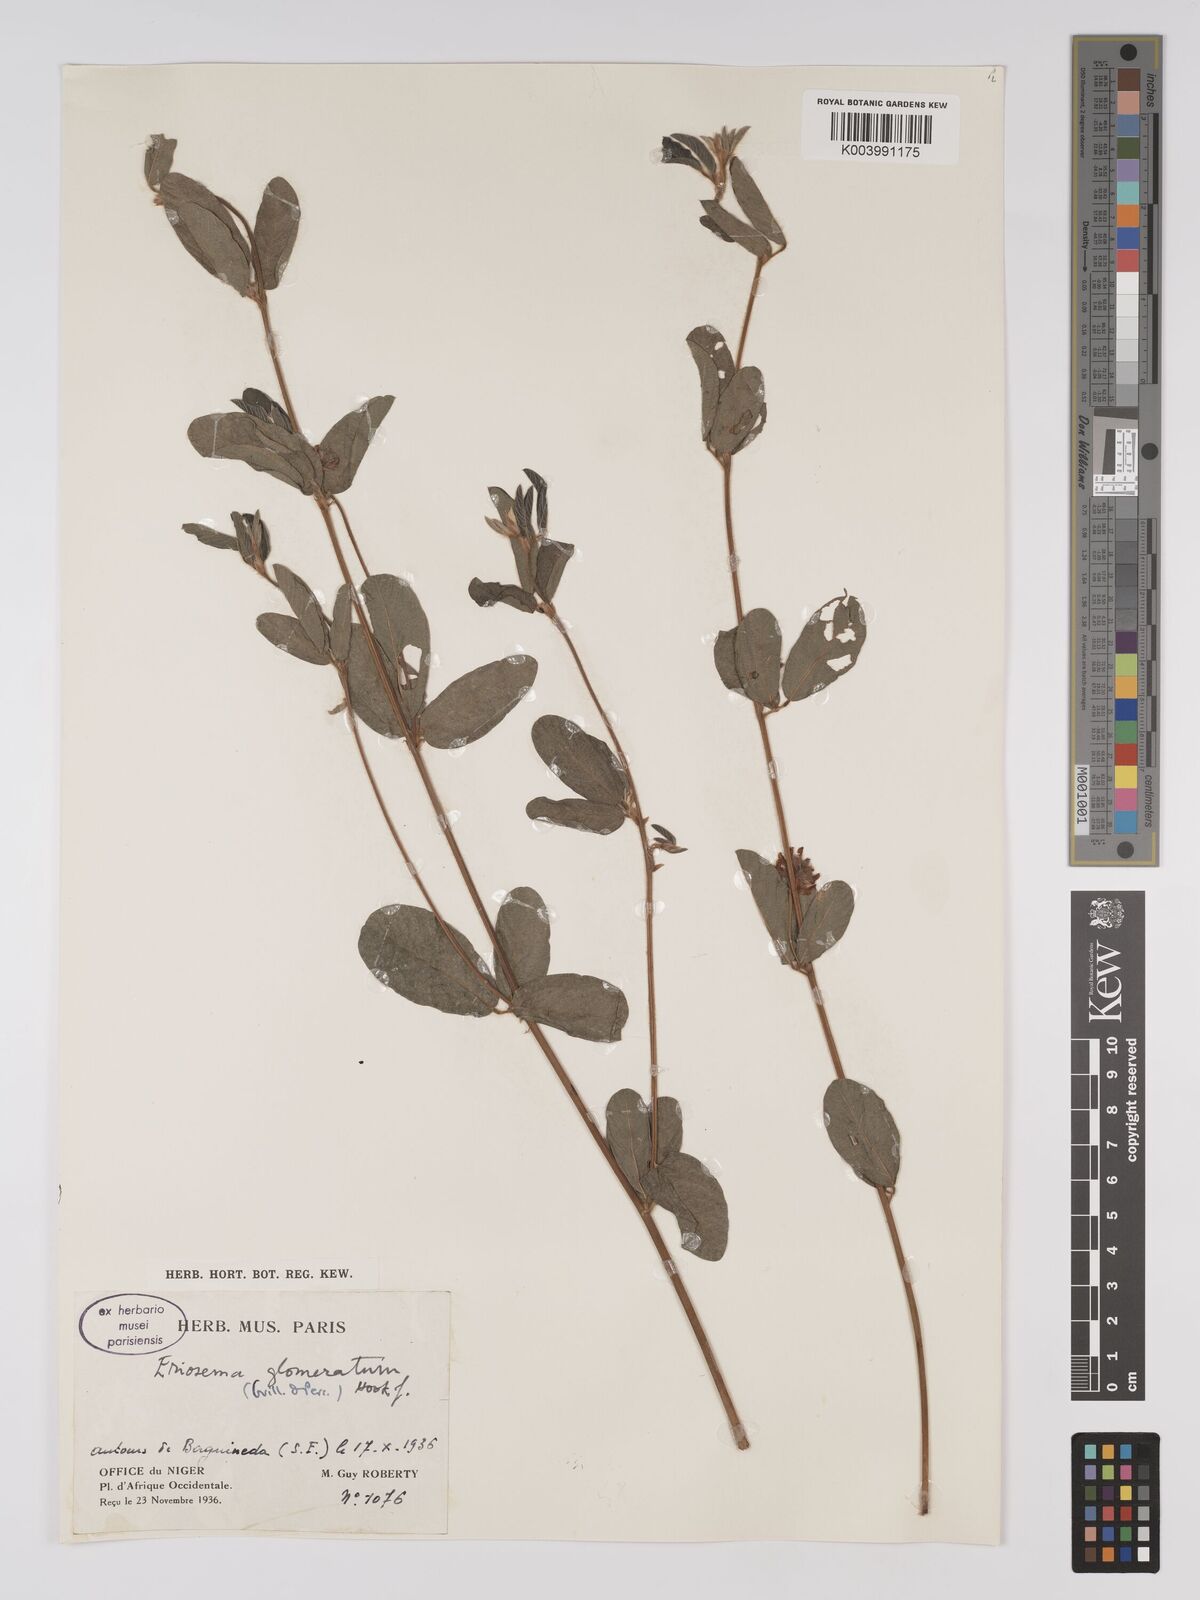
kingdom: Plantae
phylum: Tracheophyta
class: Magnoliopsida
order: Fabales
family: Fabaceae
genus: Eriosema
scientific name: Eriosema glomeratum
